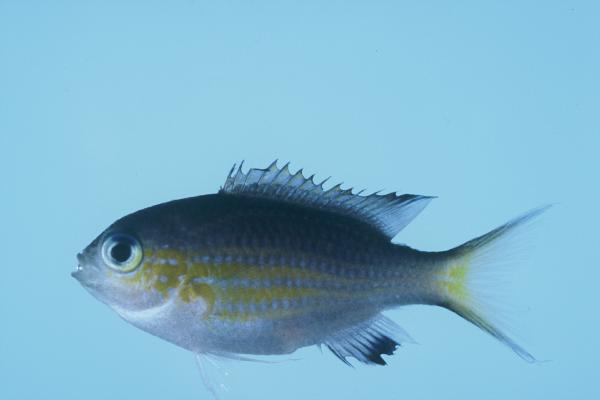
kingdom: Animalia
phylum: Chordata
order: Perciformes
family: Pomacentridae
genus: Chromis
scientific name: Chromis nigrura
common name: Blacktail chromis
